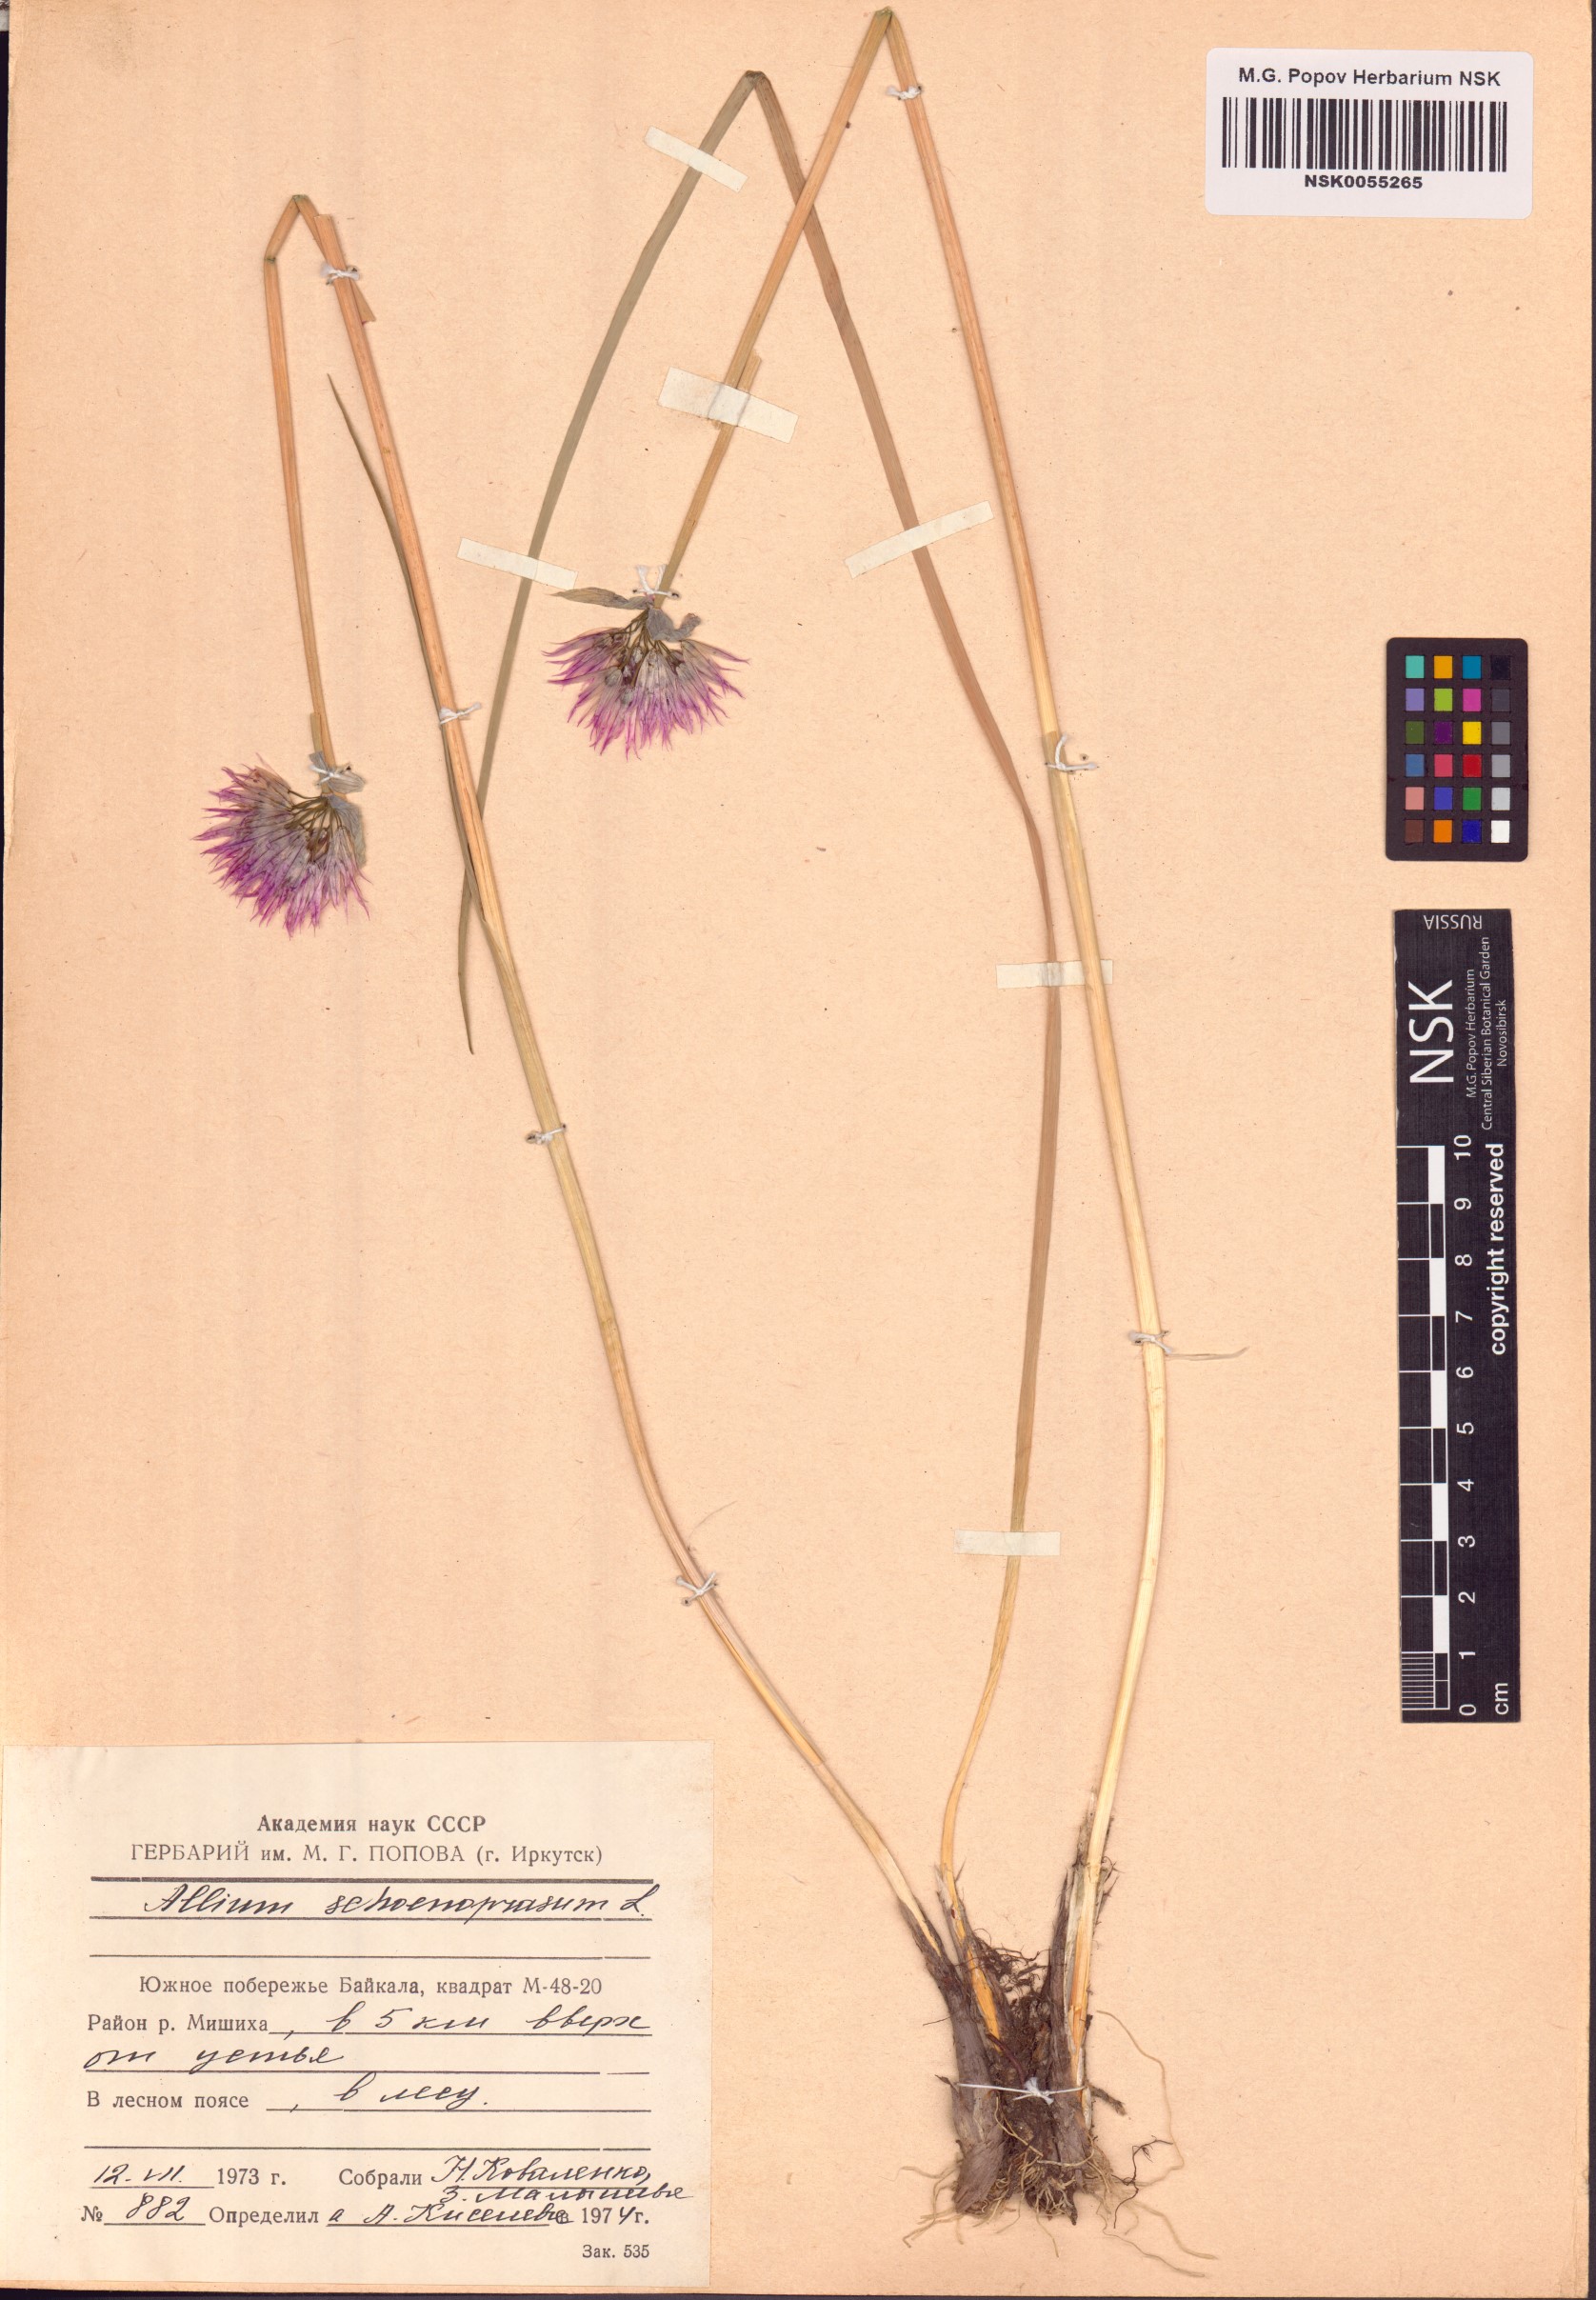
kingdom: Plantae
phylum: Tracheophyta
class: Liliopsida
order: Asparagales
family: Amaryllidaceae
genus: Allium
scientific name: Allium schoenoprasum
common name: Chives
